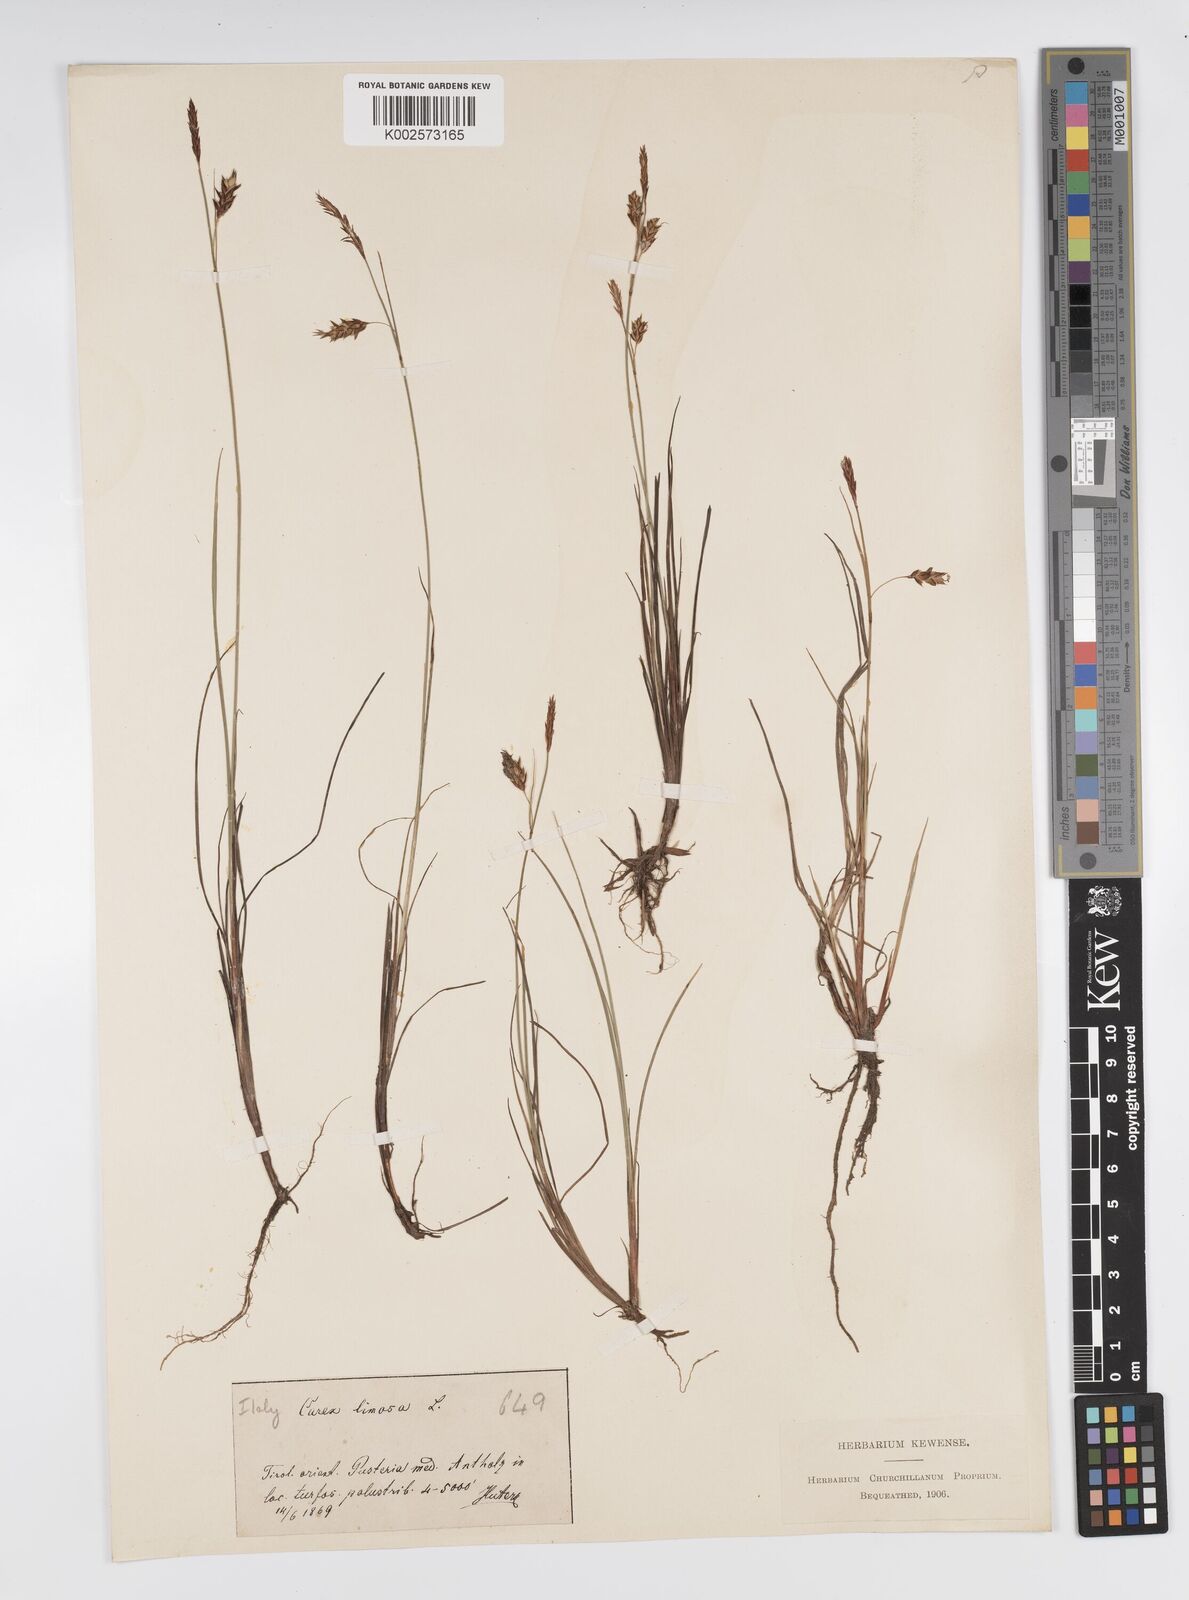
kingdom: Plantae
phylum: Tracheophyta
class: Liliopsida
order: Poales
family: Cyperaceae
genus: Carex
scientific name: Carex limosa
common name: Bog sedge
